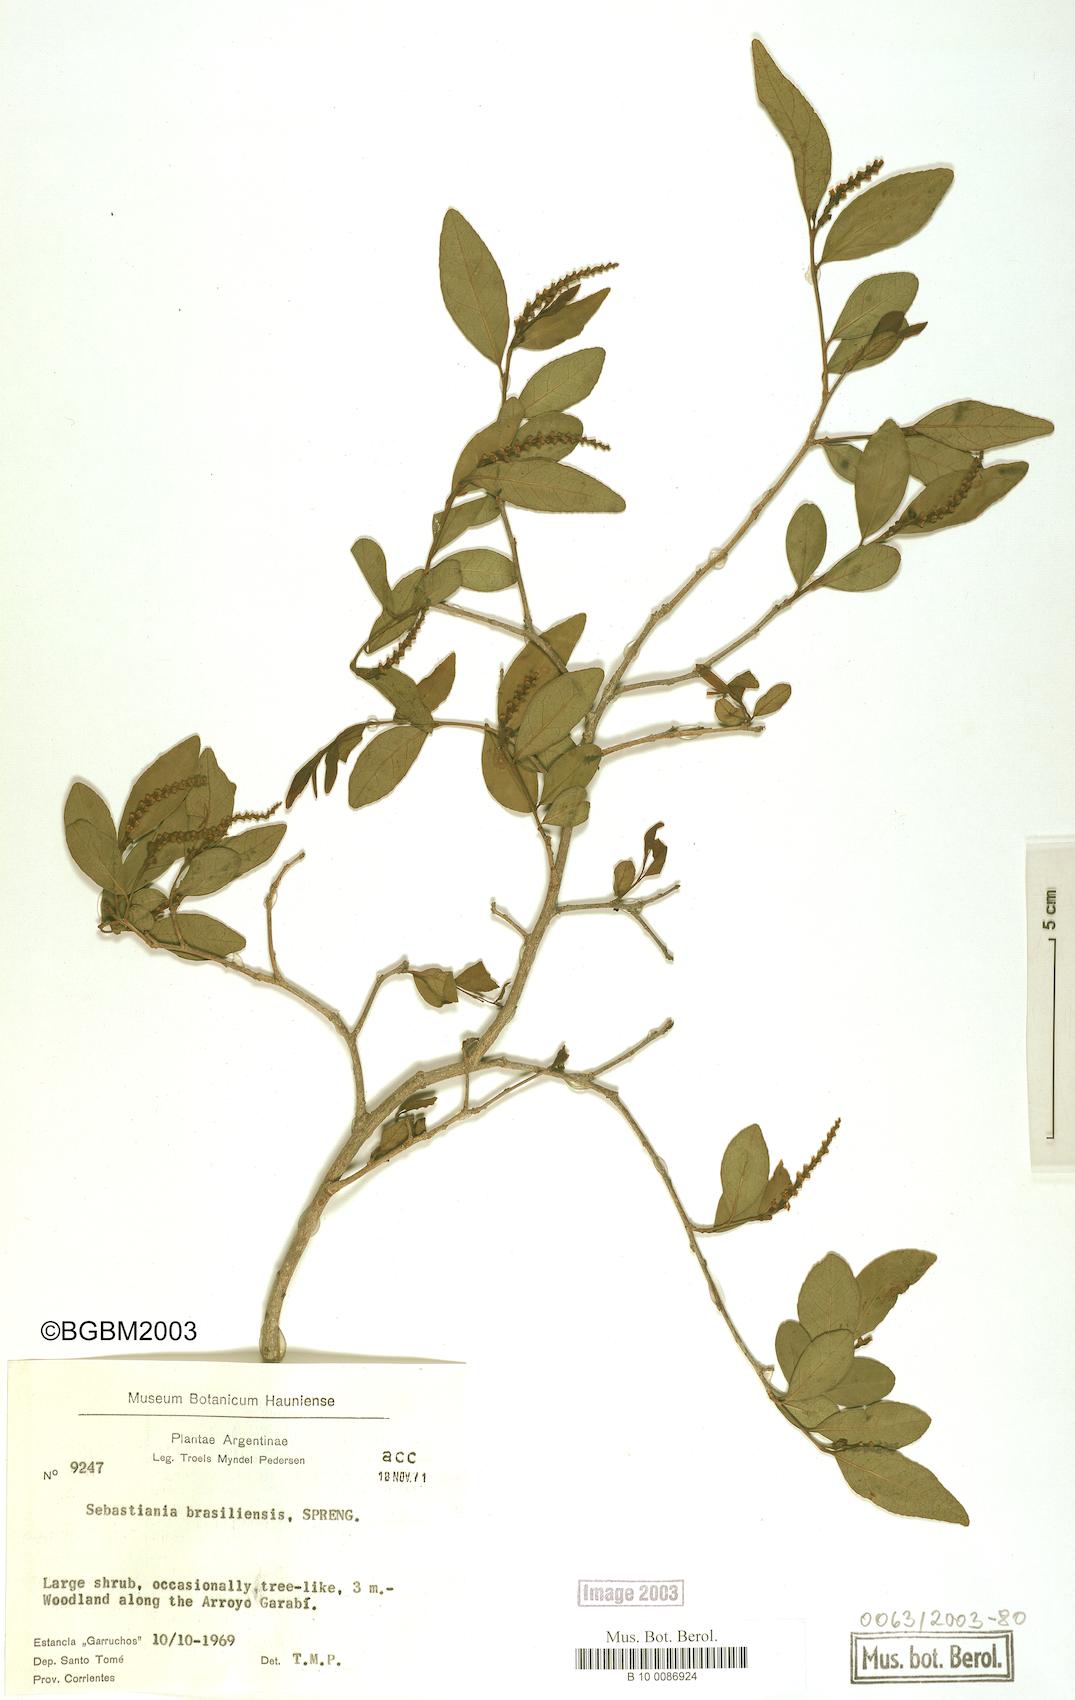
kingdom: Plantae
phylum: Tracheophyta
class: Magnoliopsida
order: Malpighiales
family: Euphorbiaceae
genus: Sebastiania
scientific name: Sebastiania brasiliensis
